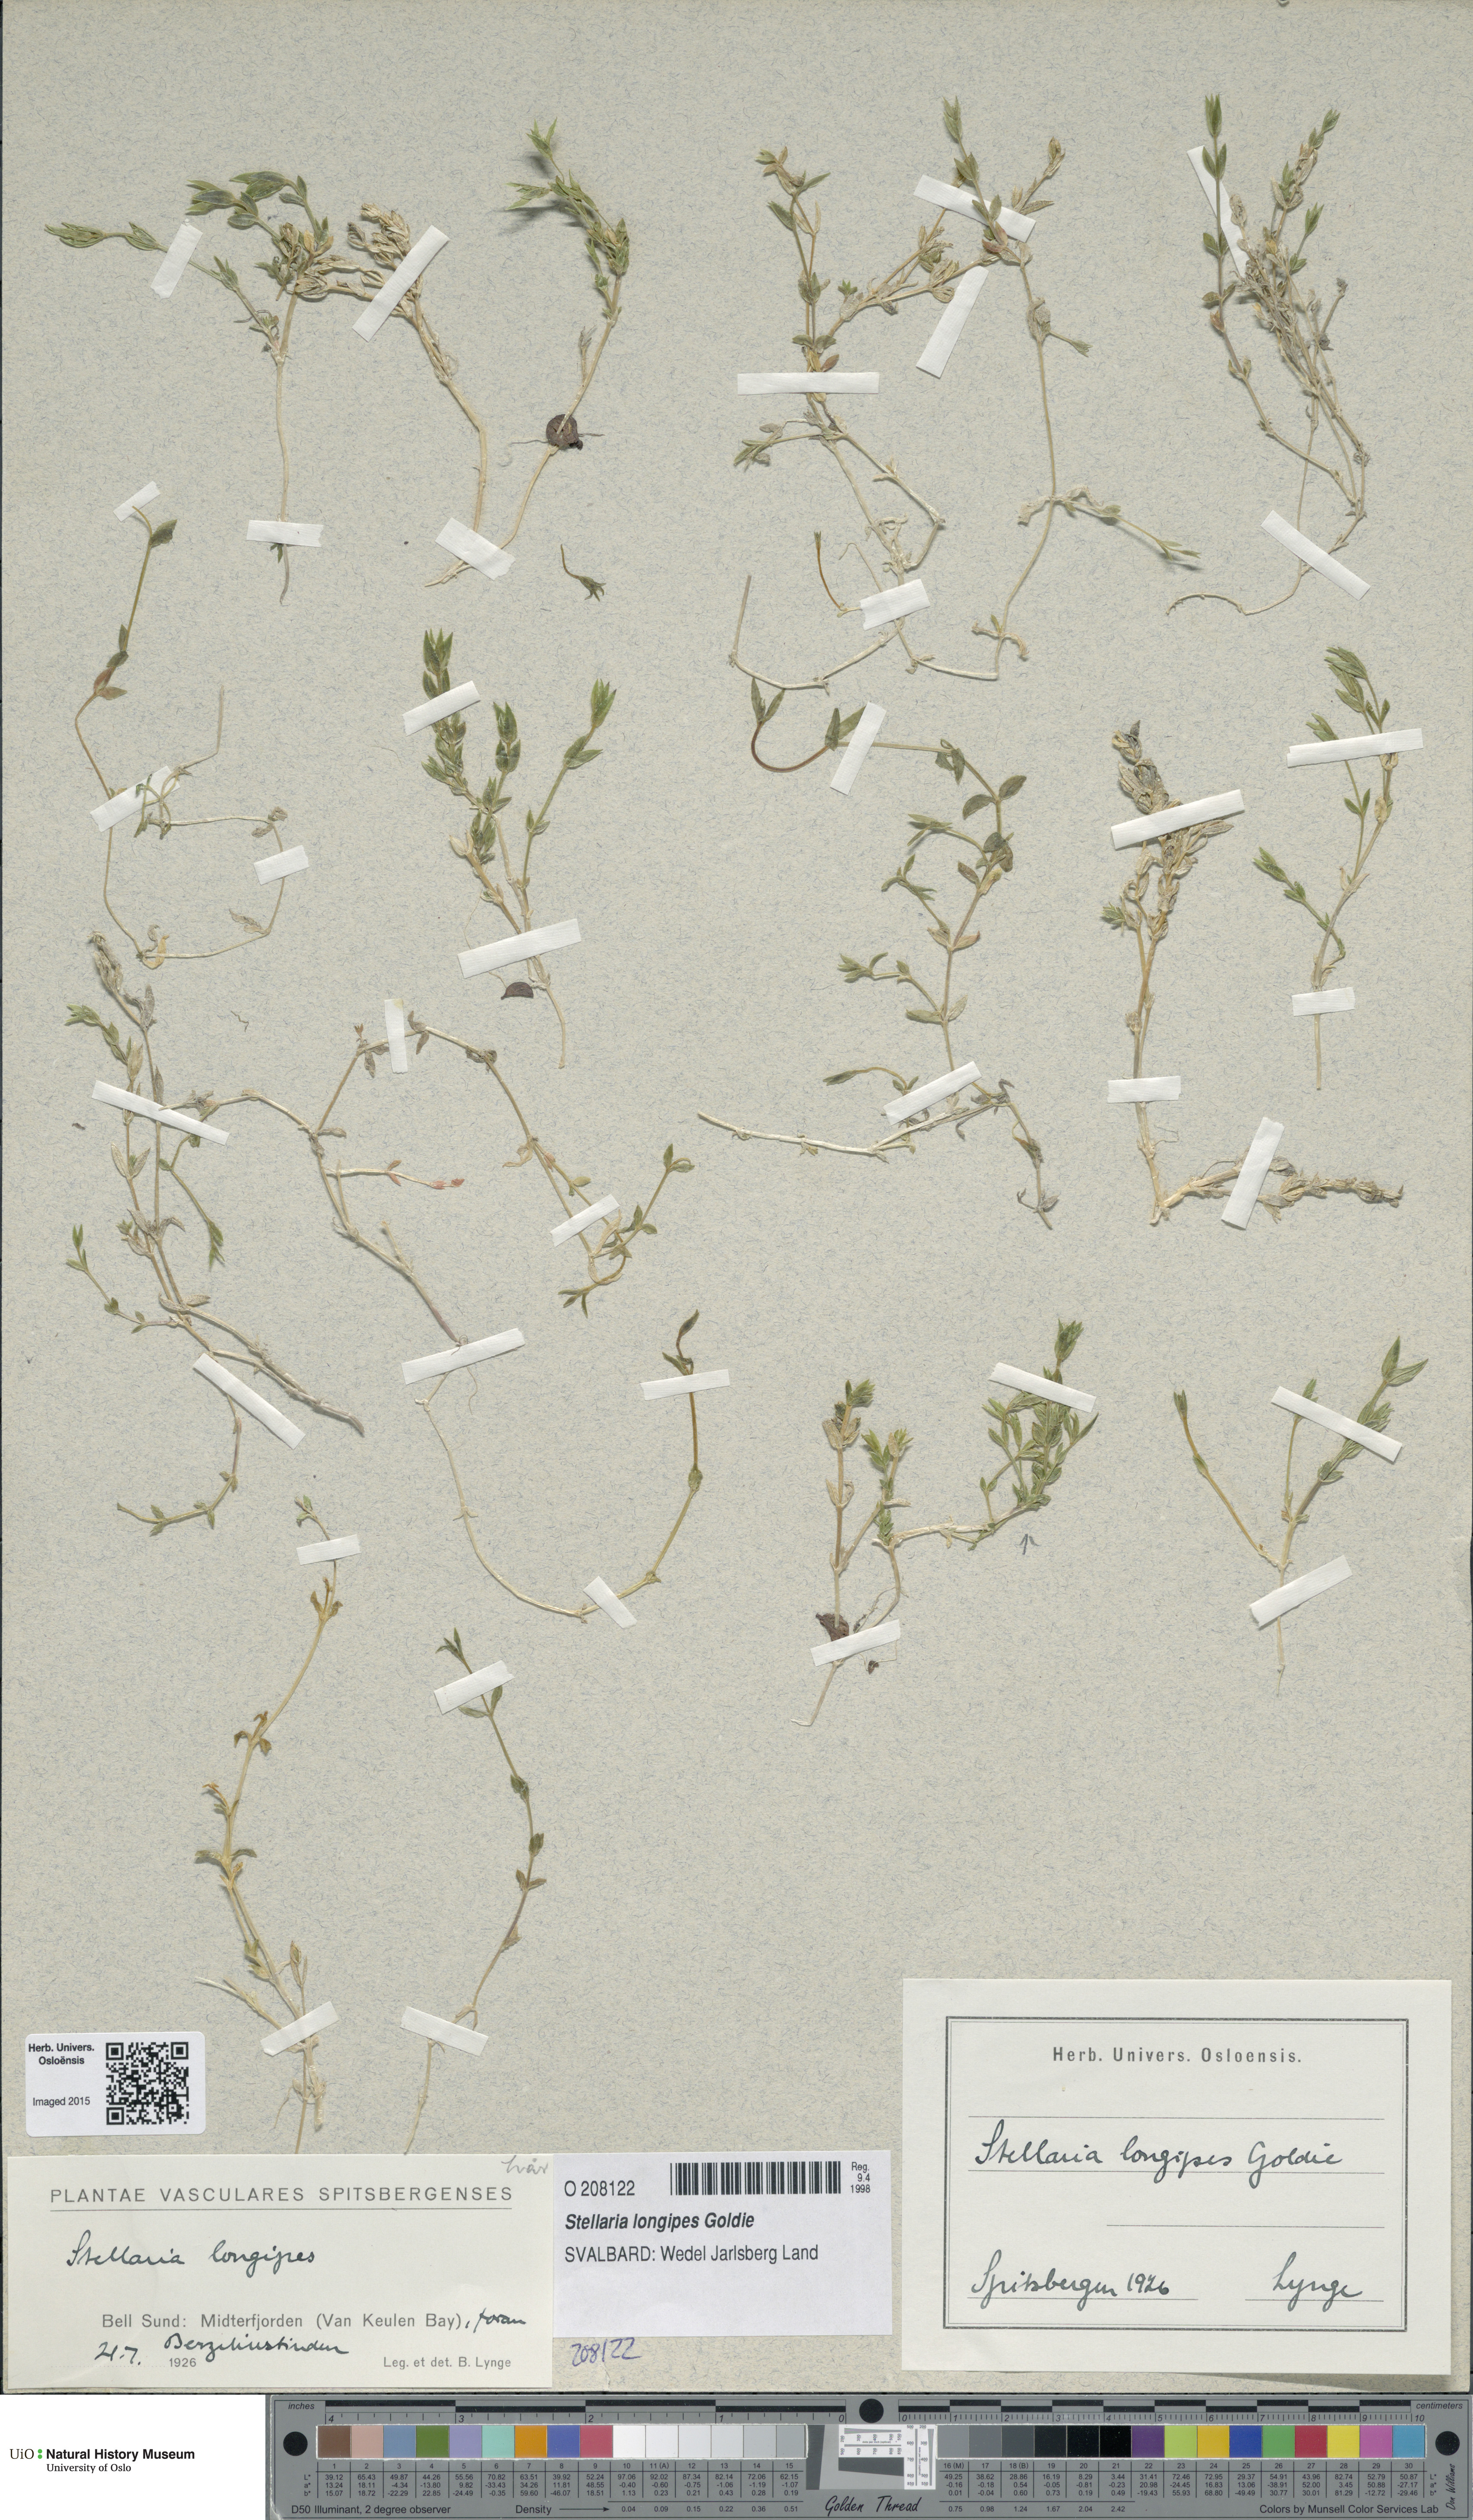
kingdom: Plantae
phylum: Tracheophyta
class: Magnoliopsida
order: Caryophyllales
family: Caryophyllaceae
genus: Stellaria
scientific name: Stellaria longipes
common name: Goldie's starwort
